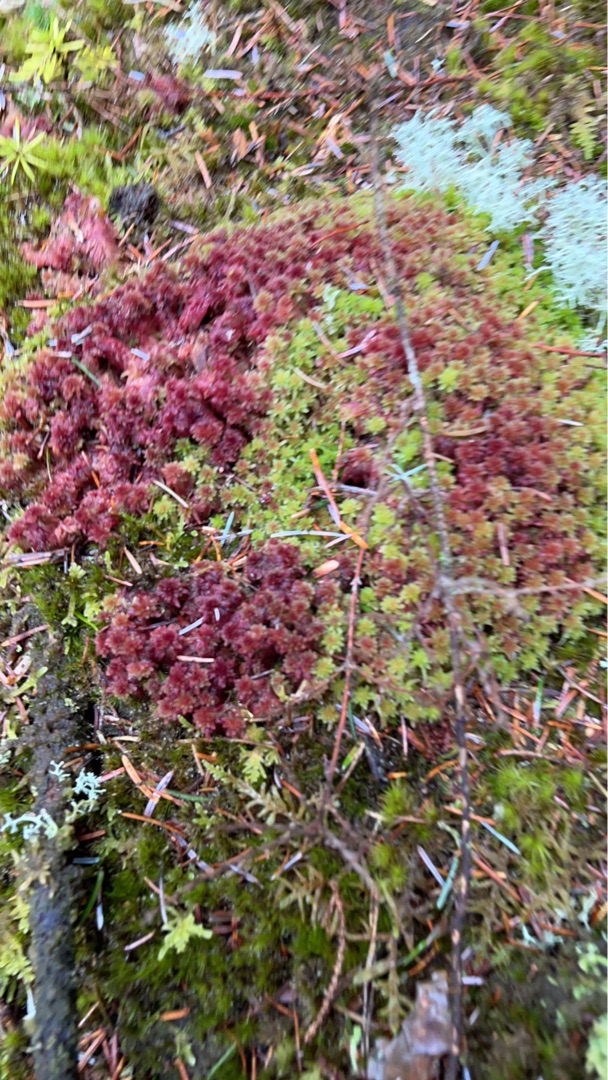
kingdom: Plantae
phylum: Bryophyta
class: Sphagnopsida
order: Sphagnales
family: Sphagnaceae
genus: Sphagnum
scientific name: Sphagnum
